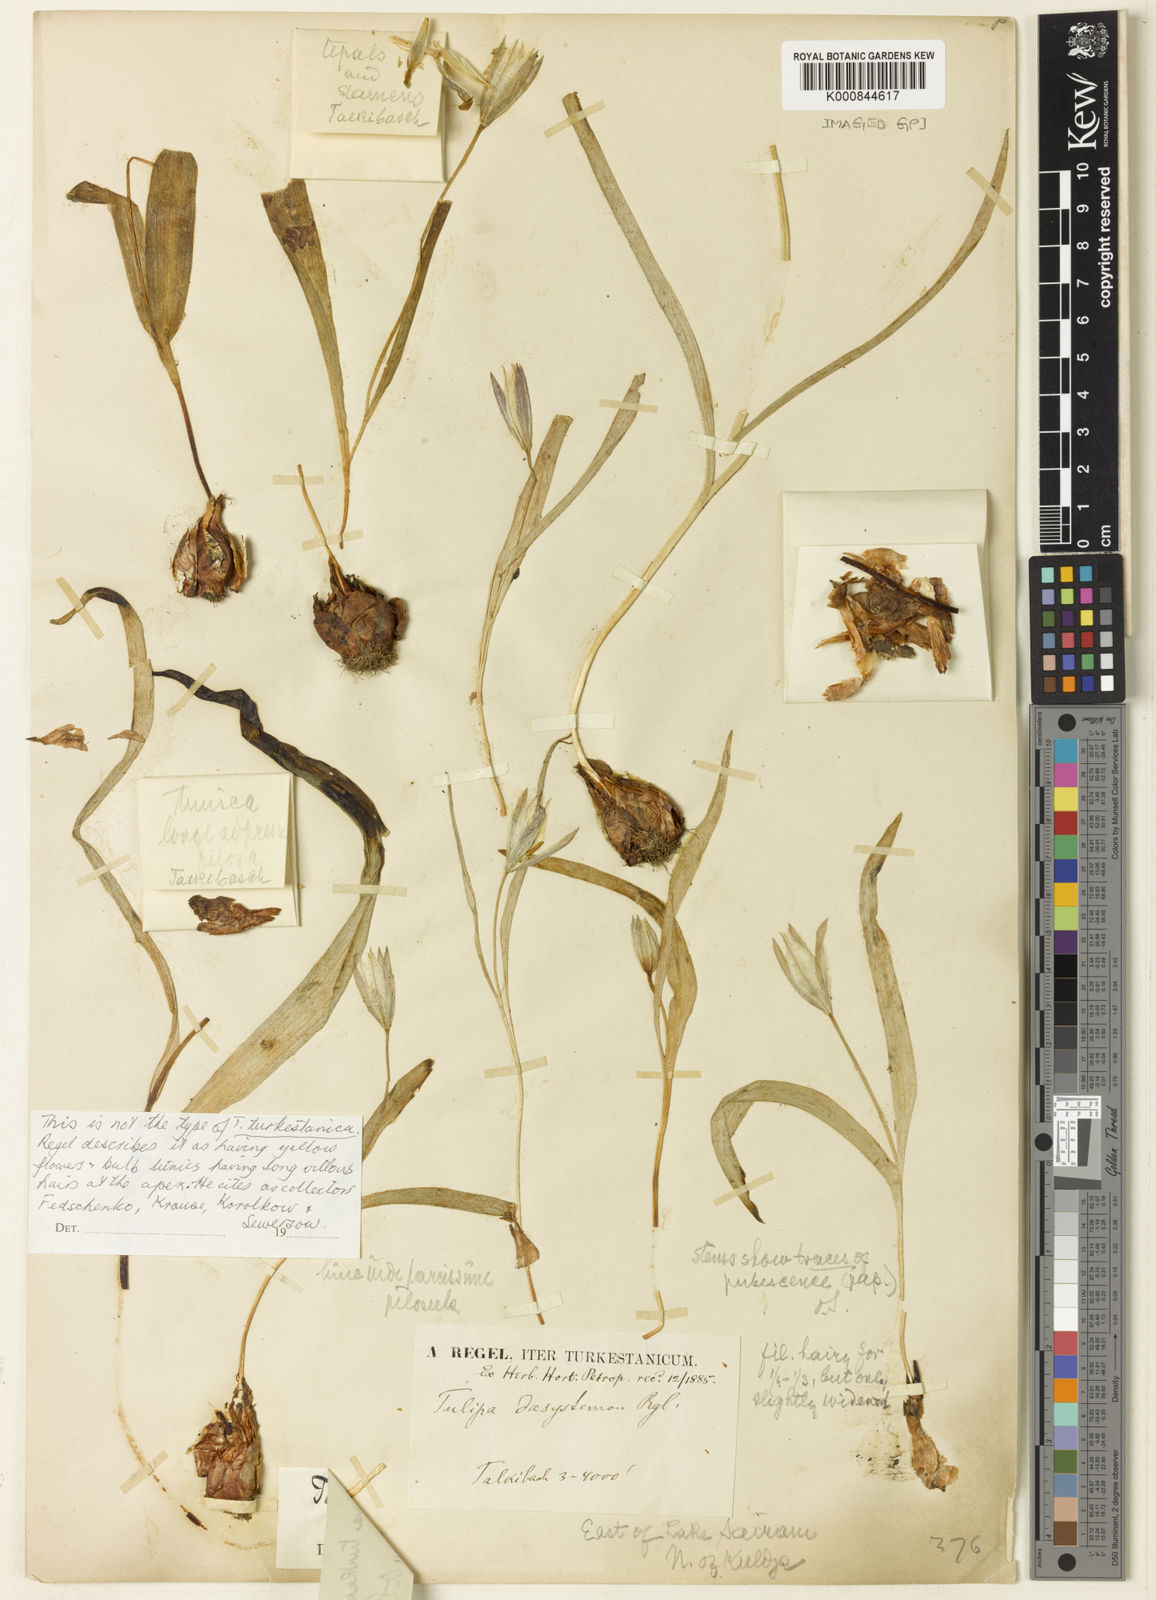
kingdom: Plantae
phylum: Tracheophyta
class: Liliopsida
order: Liliales
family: Liliaceae
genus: Tulipa
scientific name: Tulipa turkestanica
